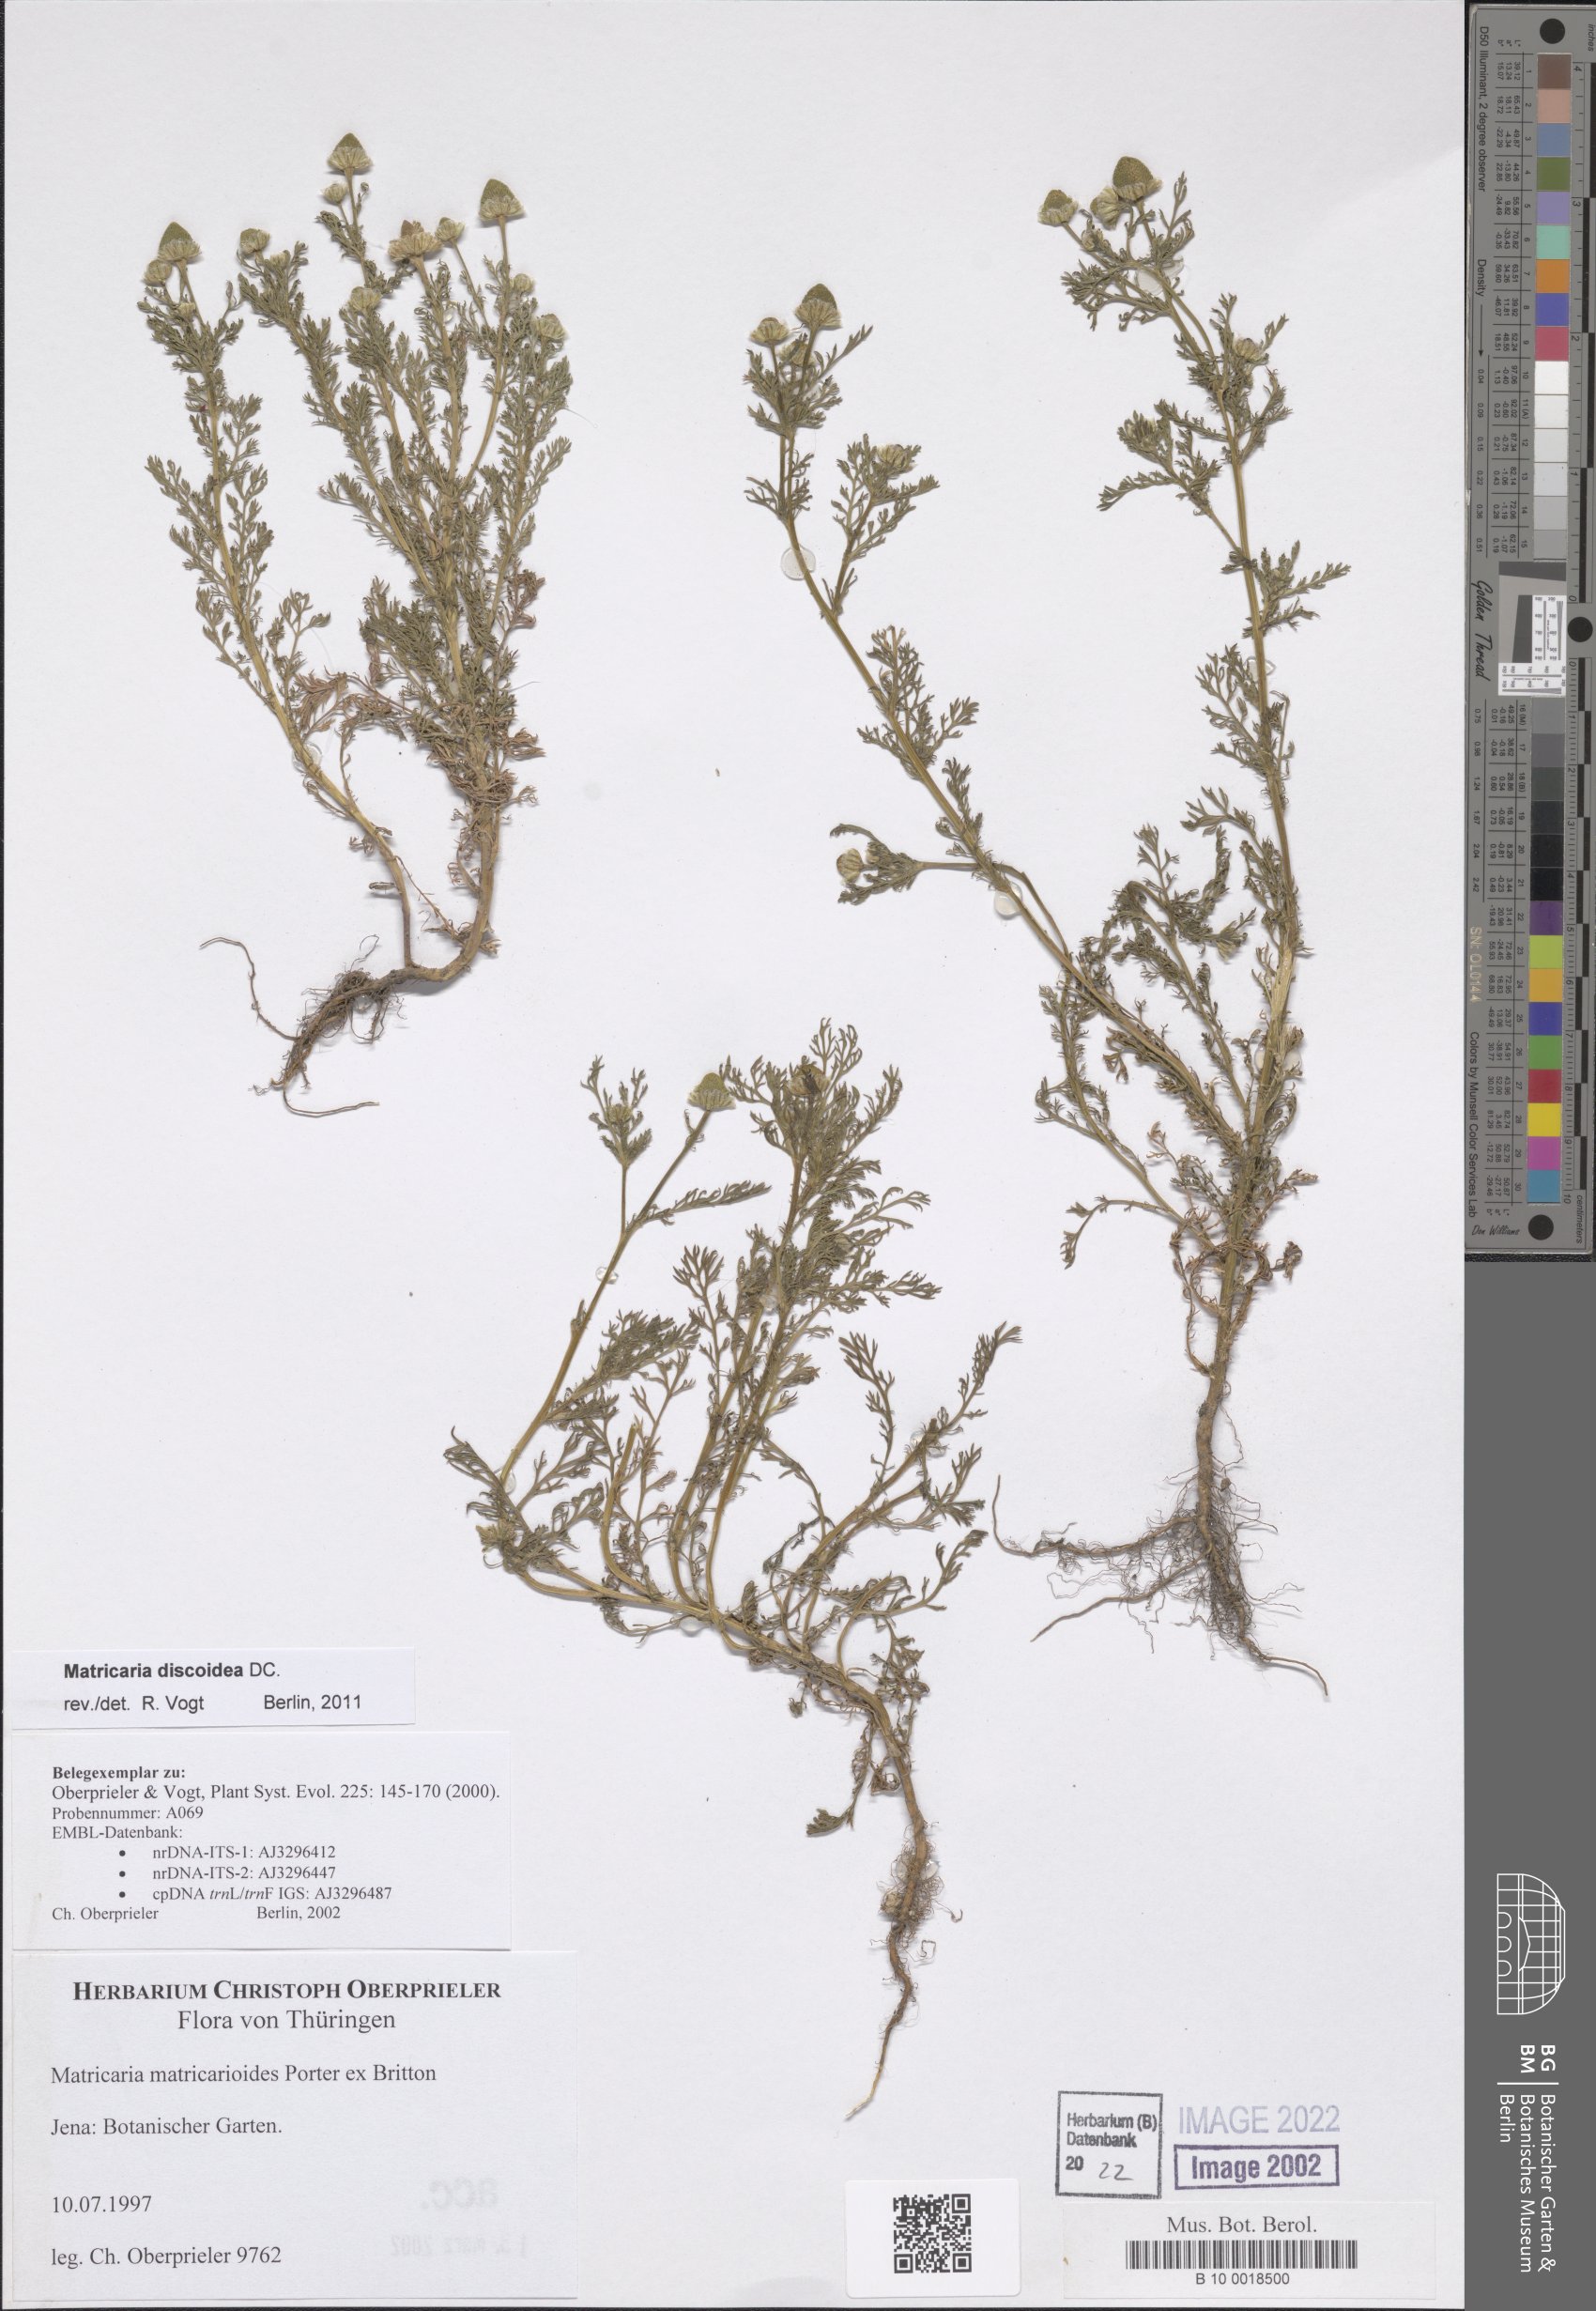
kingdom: Plantae
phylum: Tracheophyta
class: Magnoliopsida
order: Asterales
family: Asteraceae
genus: Matricaria
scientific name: Matricaria discoidea
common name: Disc mayweed
